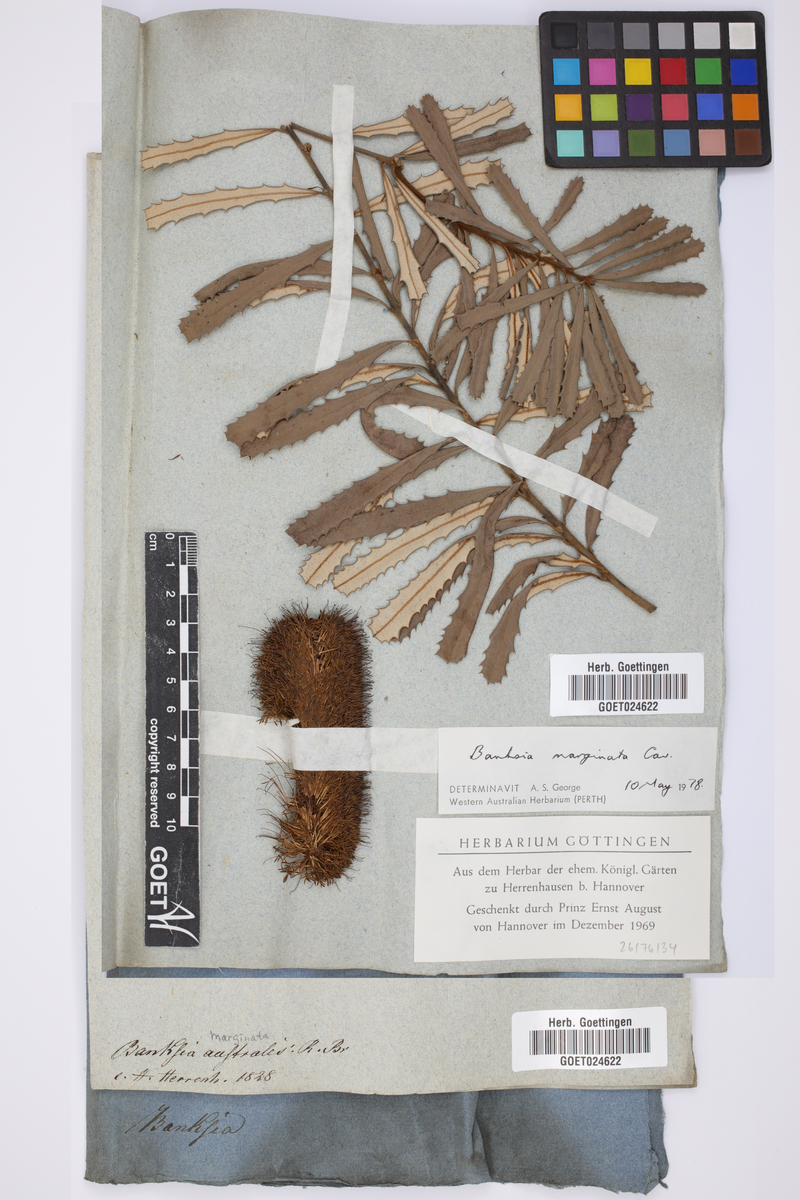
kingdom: Plantae
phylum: Tracheophyta
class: Magnoliopsida
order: Proteales
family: Proteaceae
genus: Banksia
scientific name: Banksia marginata
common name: Silver banksia
